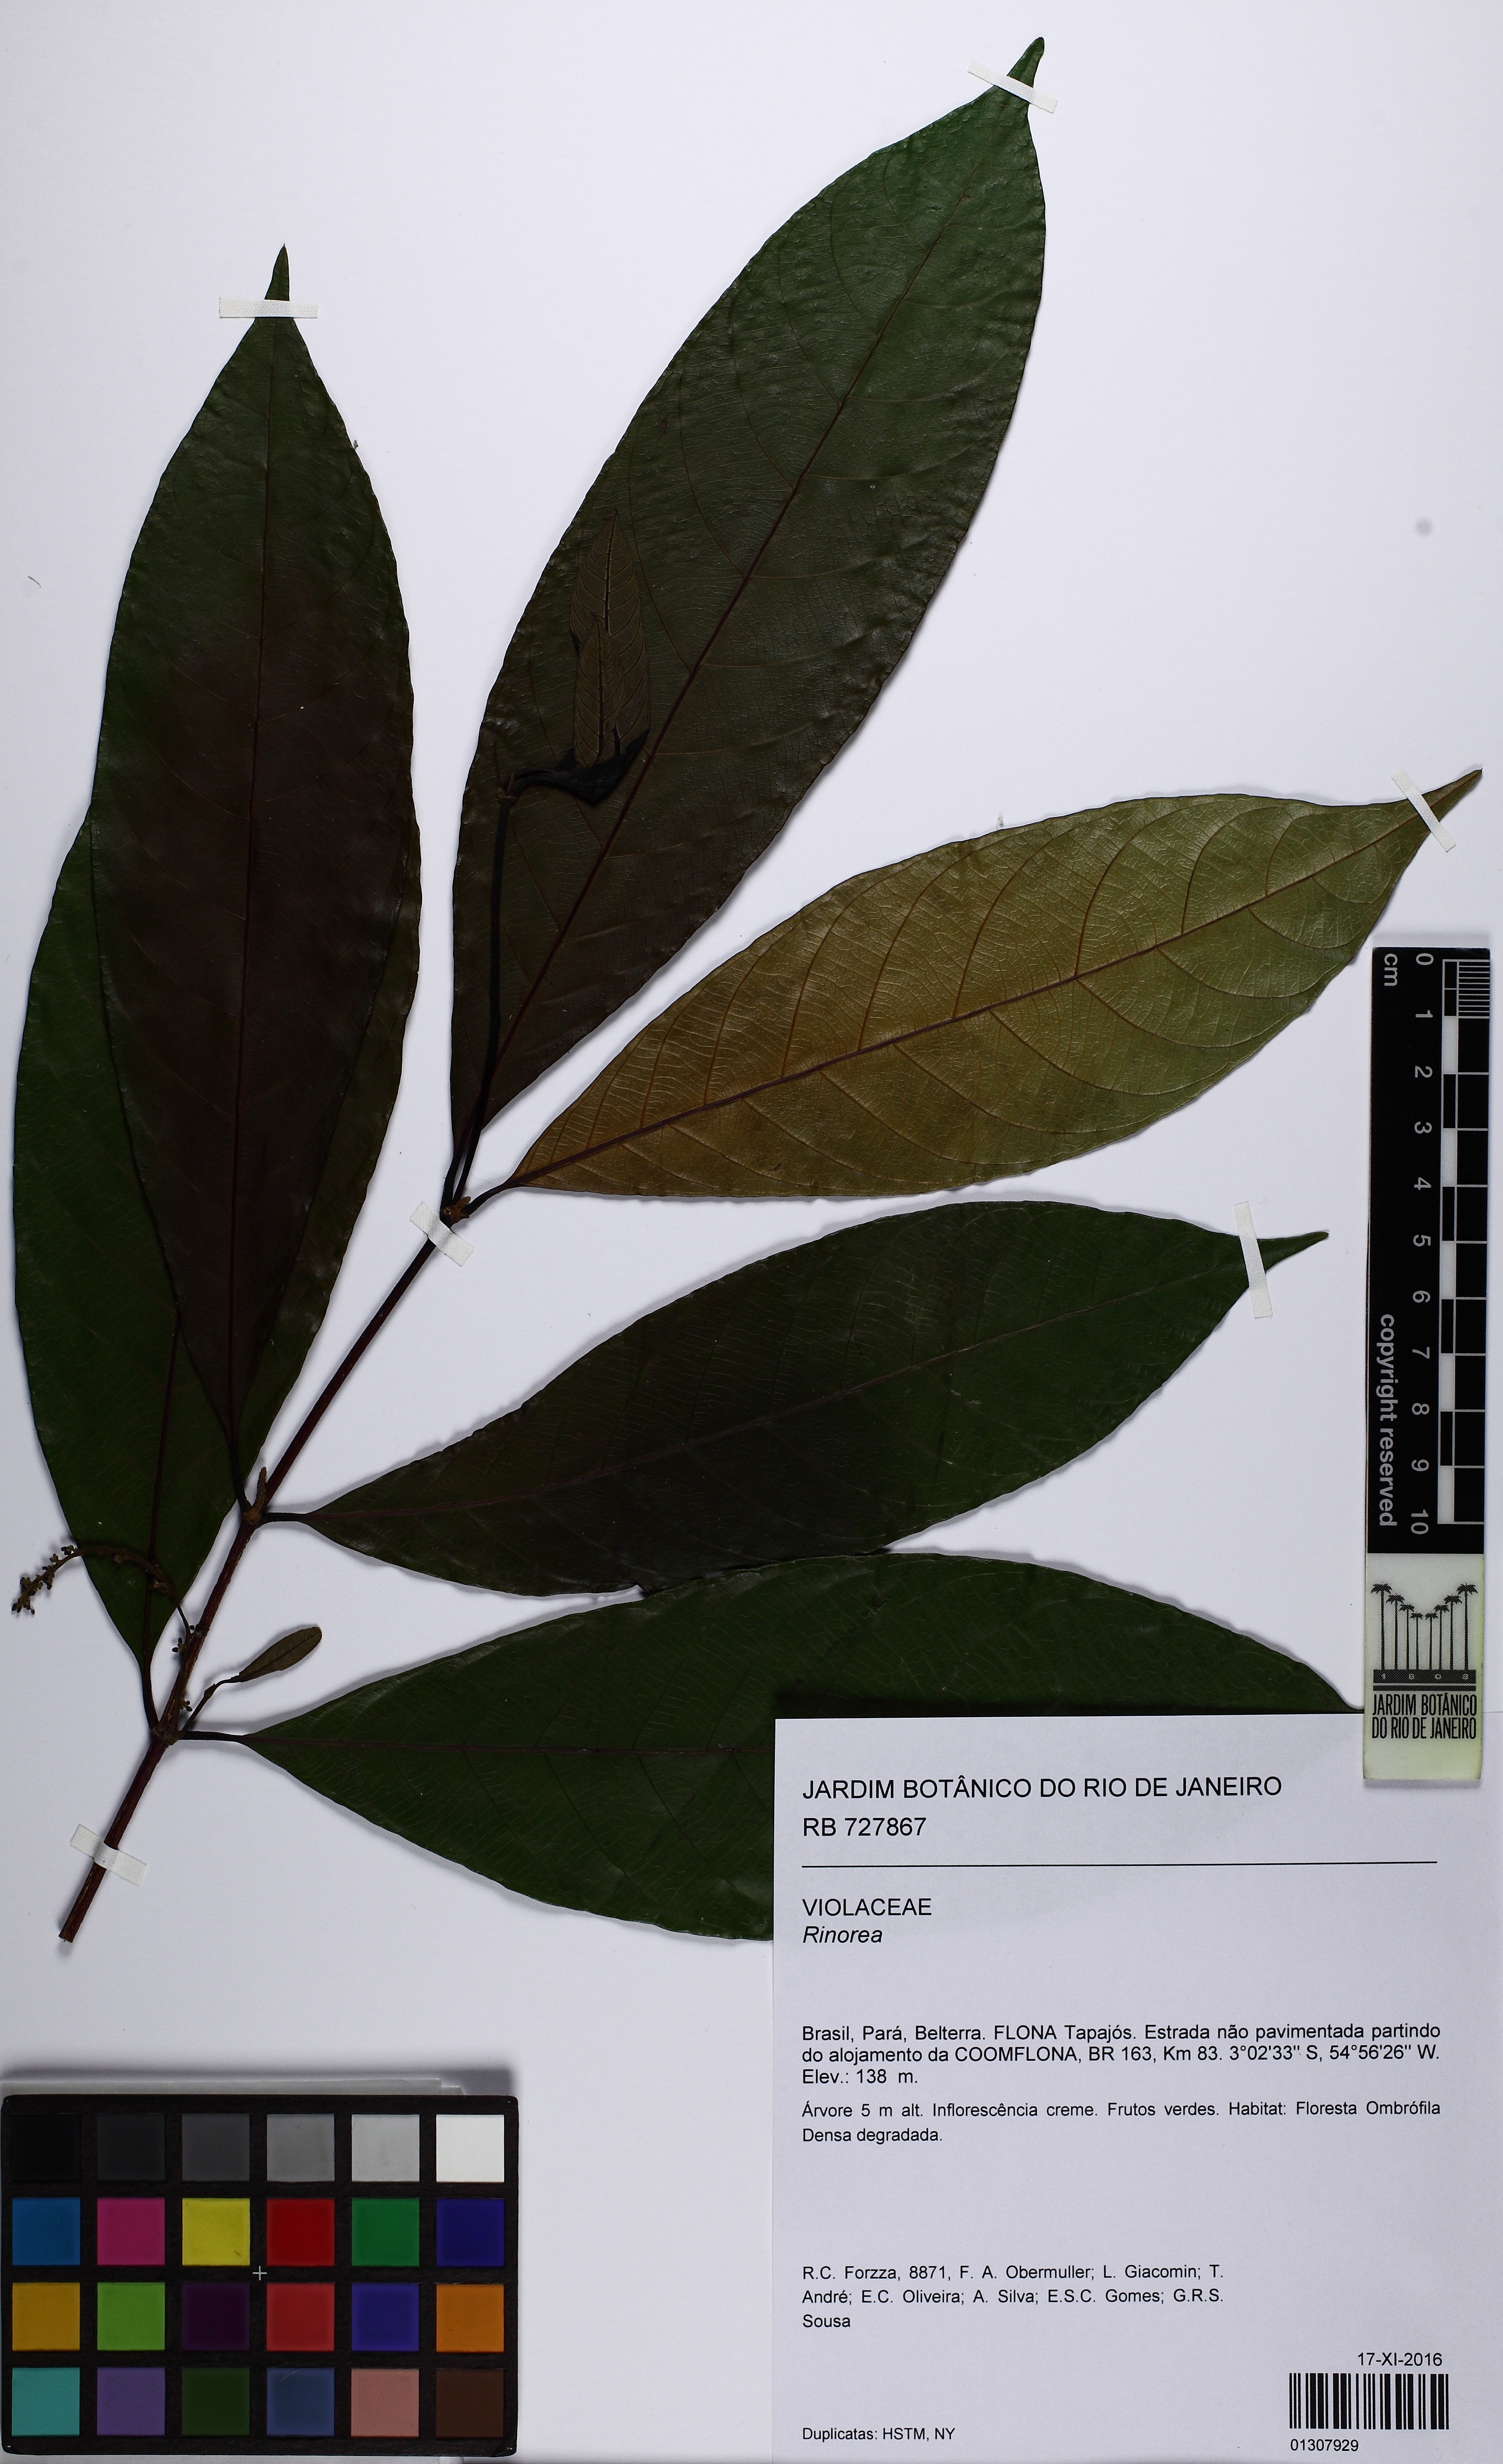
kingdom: Plantae
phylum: Tracheophyta
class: Magnoliopsida
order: Malpighiales
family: Violaceae
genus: Rinorea
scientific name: Rinorea
